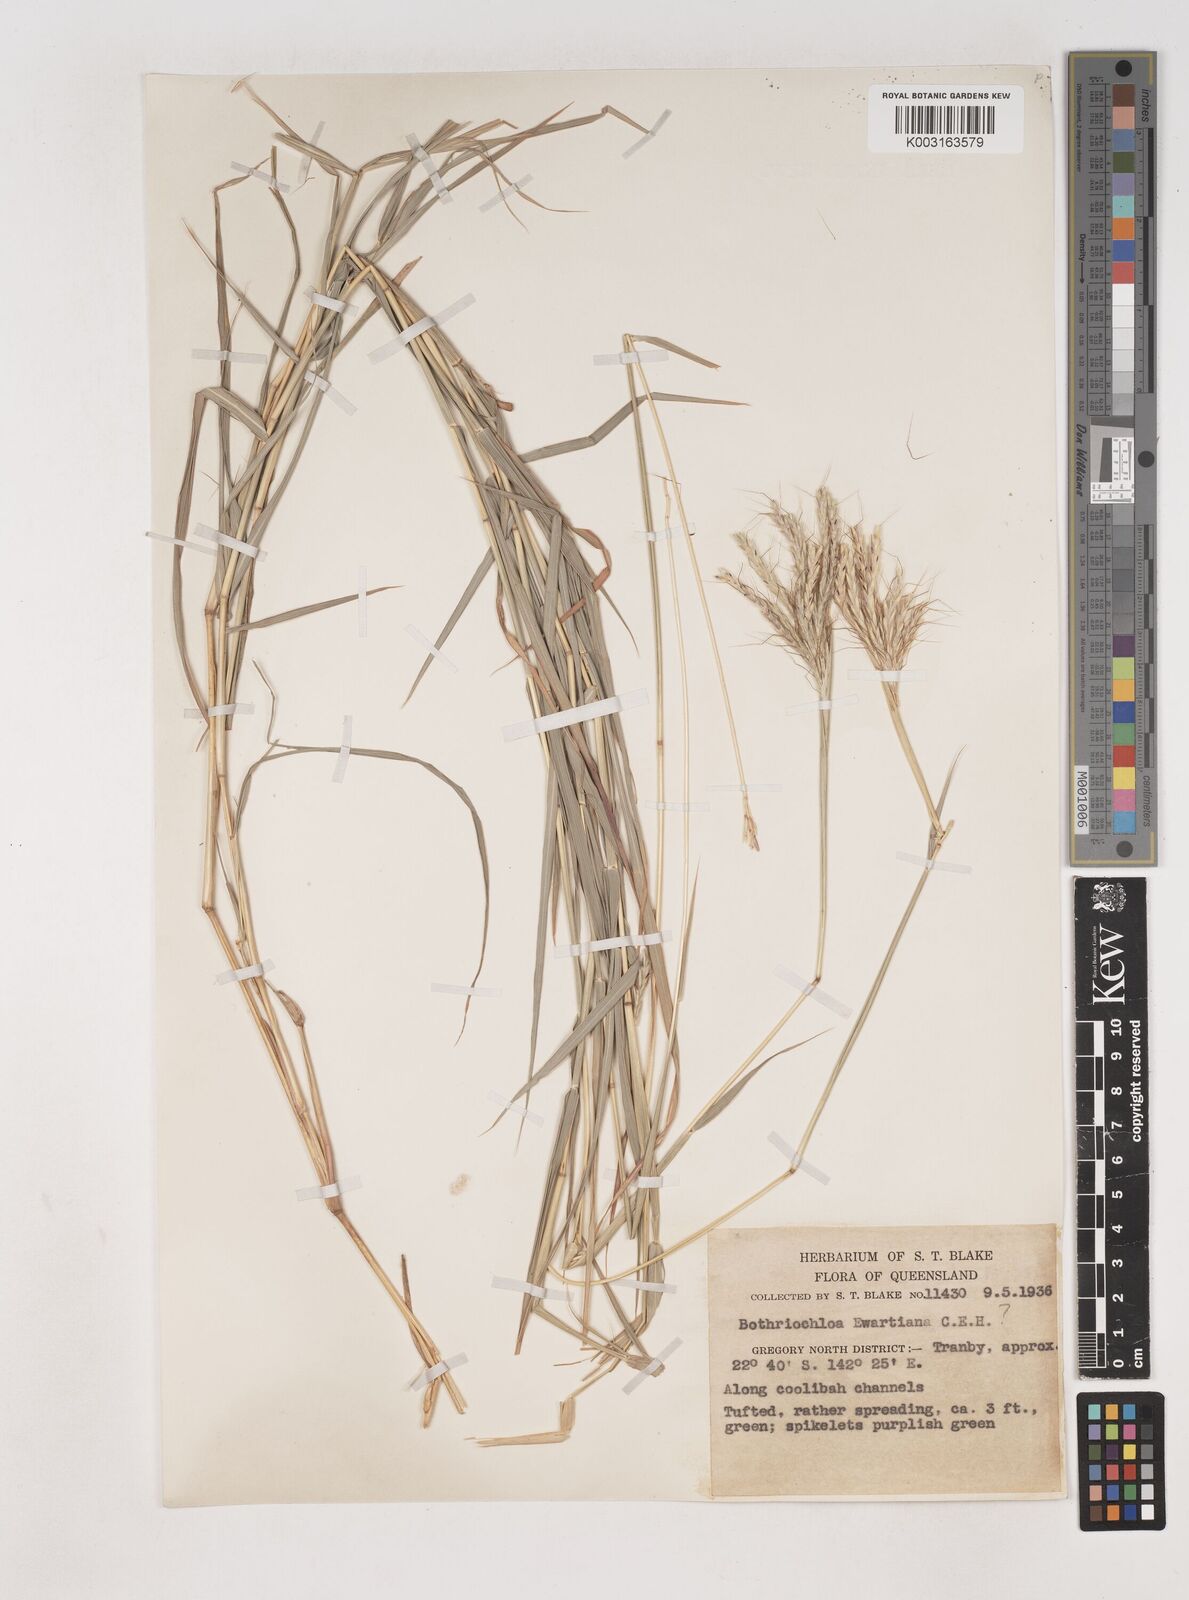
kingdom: Plantae
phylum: Tracheophyta
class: Liliopsida
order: Poales
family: Poaceae
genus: Dichanthium
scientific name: Dichanthium
